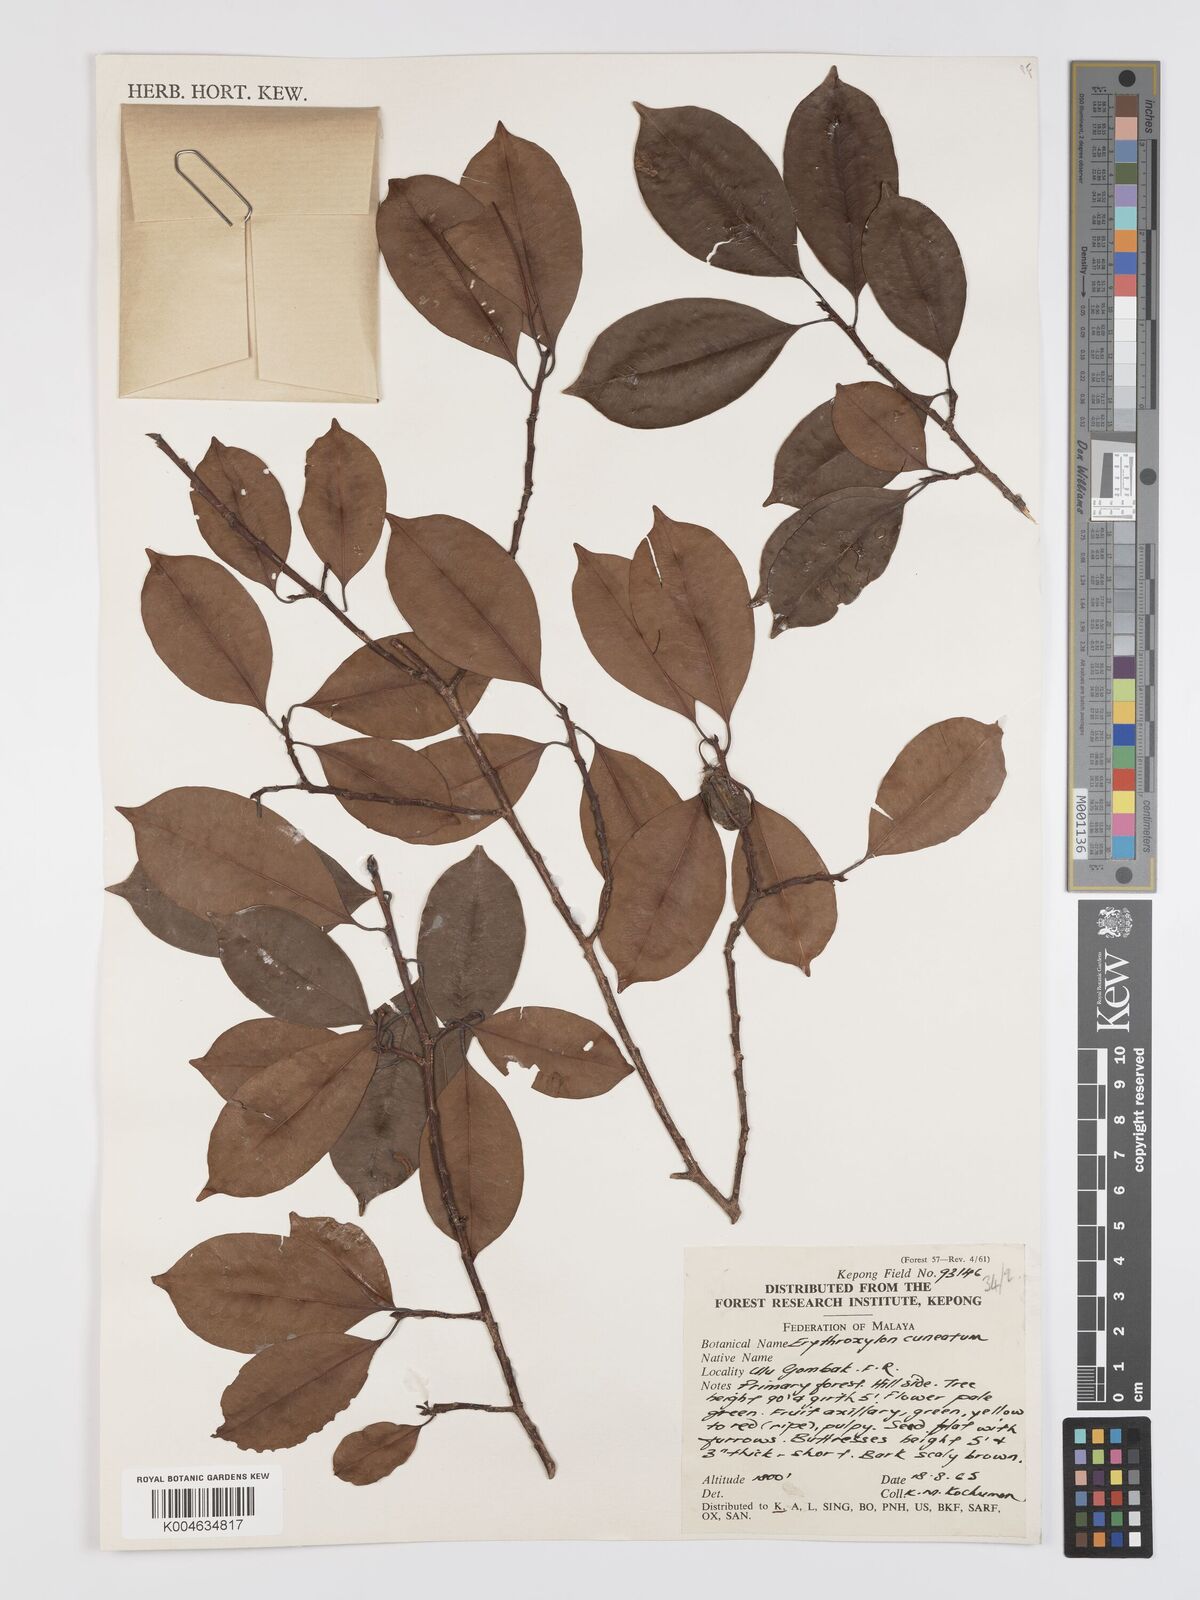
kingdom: Plantae
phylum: Tracheophyta
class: Magnoliopsida
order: Malpighiales
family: Erythroxylaceae
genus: Erythroxylum
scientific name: Erythroxylum cuneatum
